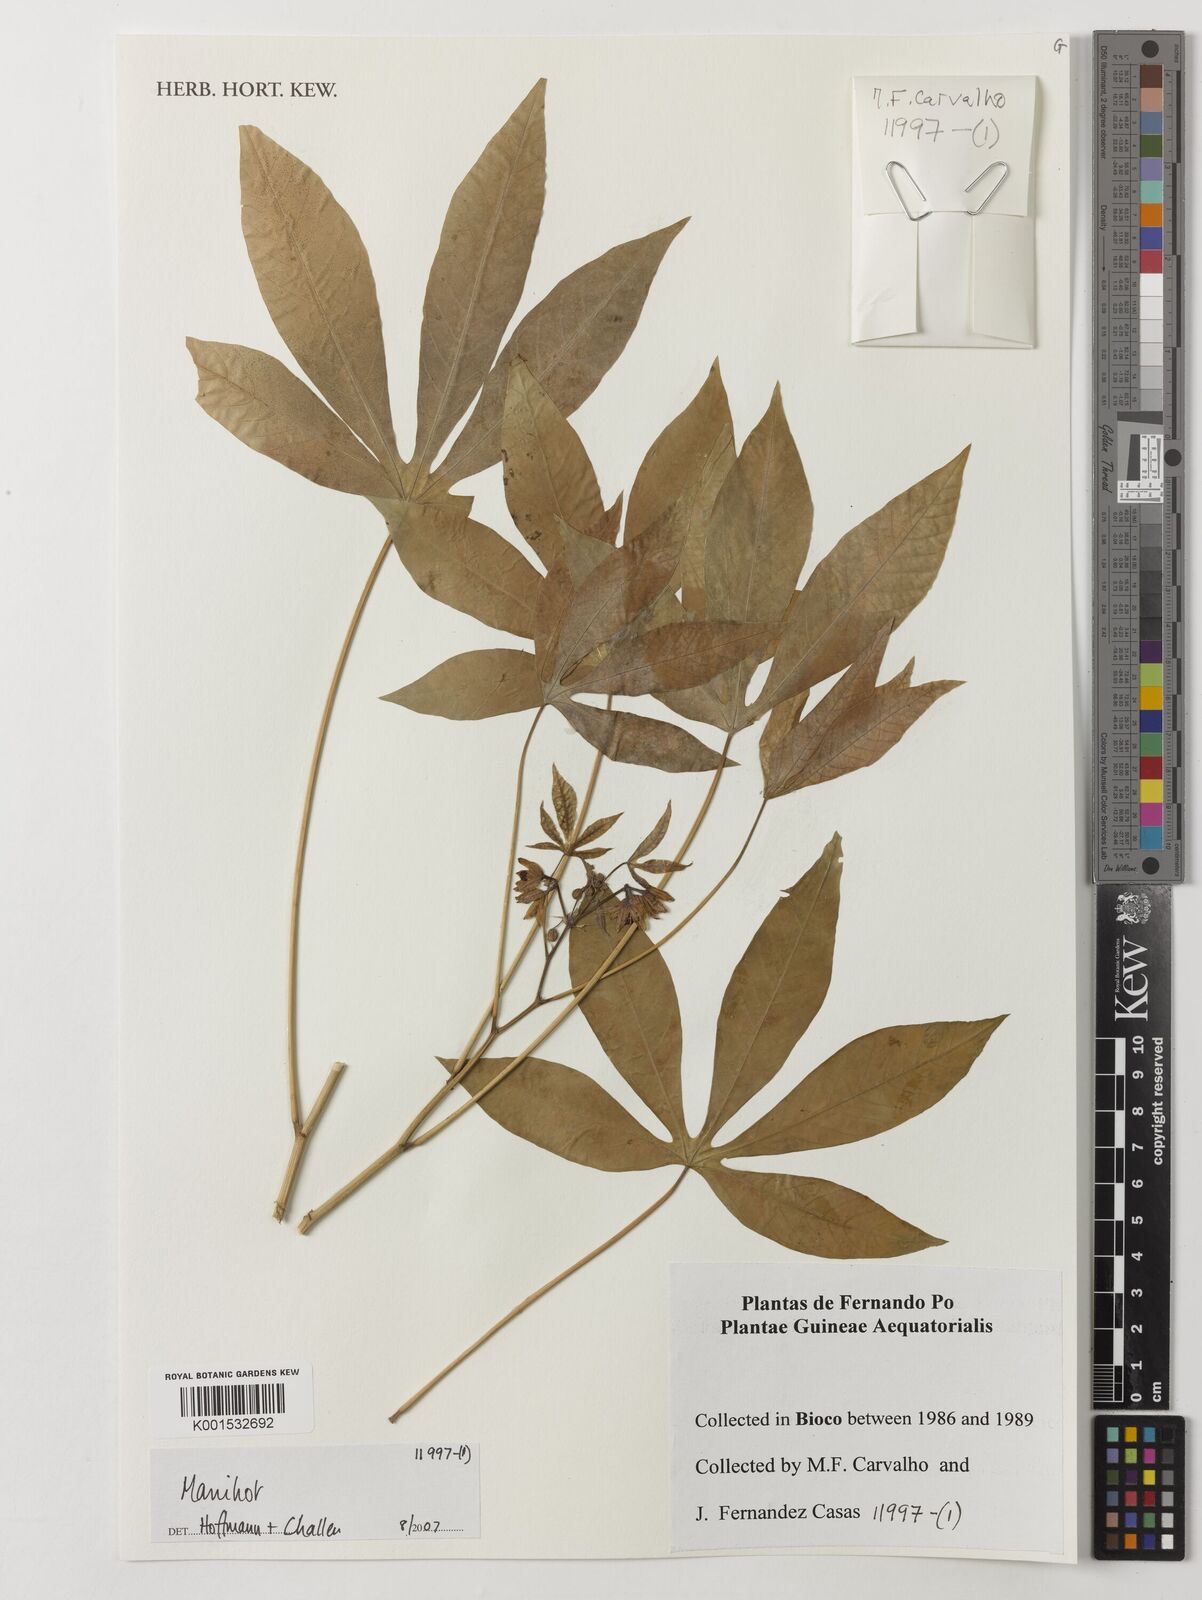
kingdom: Plantae
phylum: Tracheophyta
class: Magnoliopsida
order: Malpighiales
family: Euphorbiaceae
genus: Manihot
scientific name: Manihot
